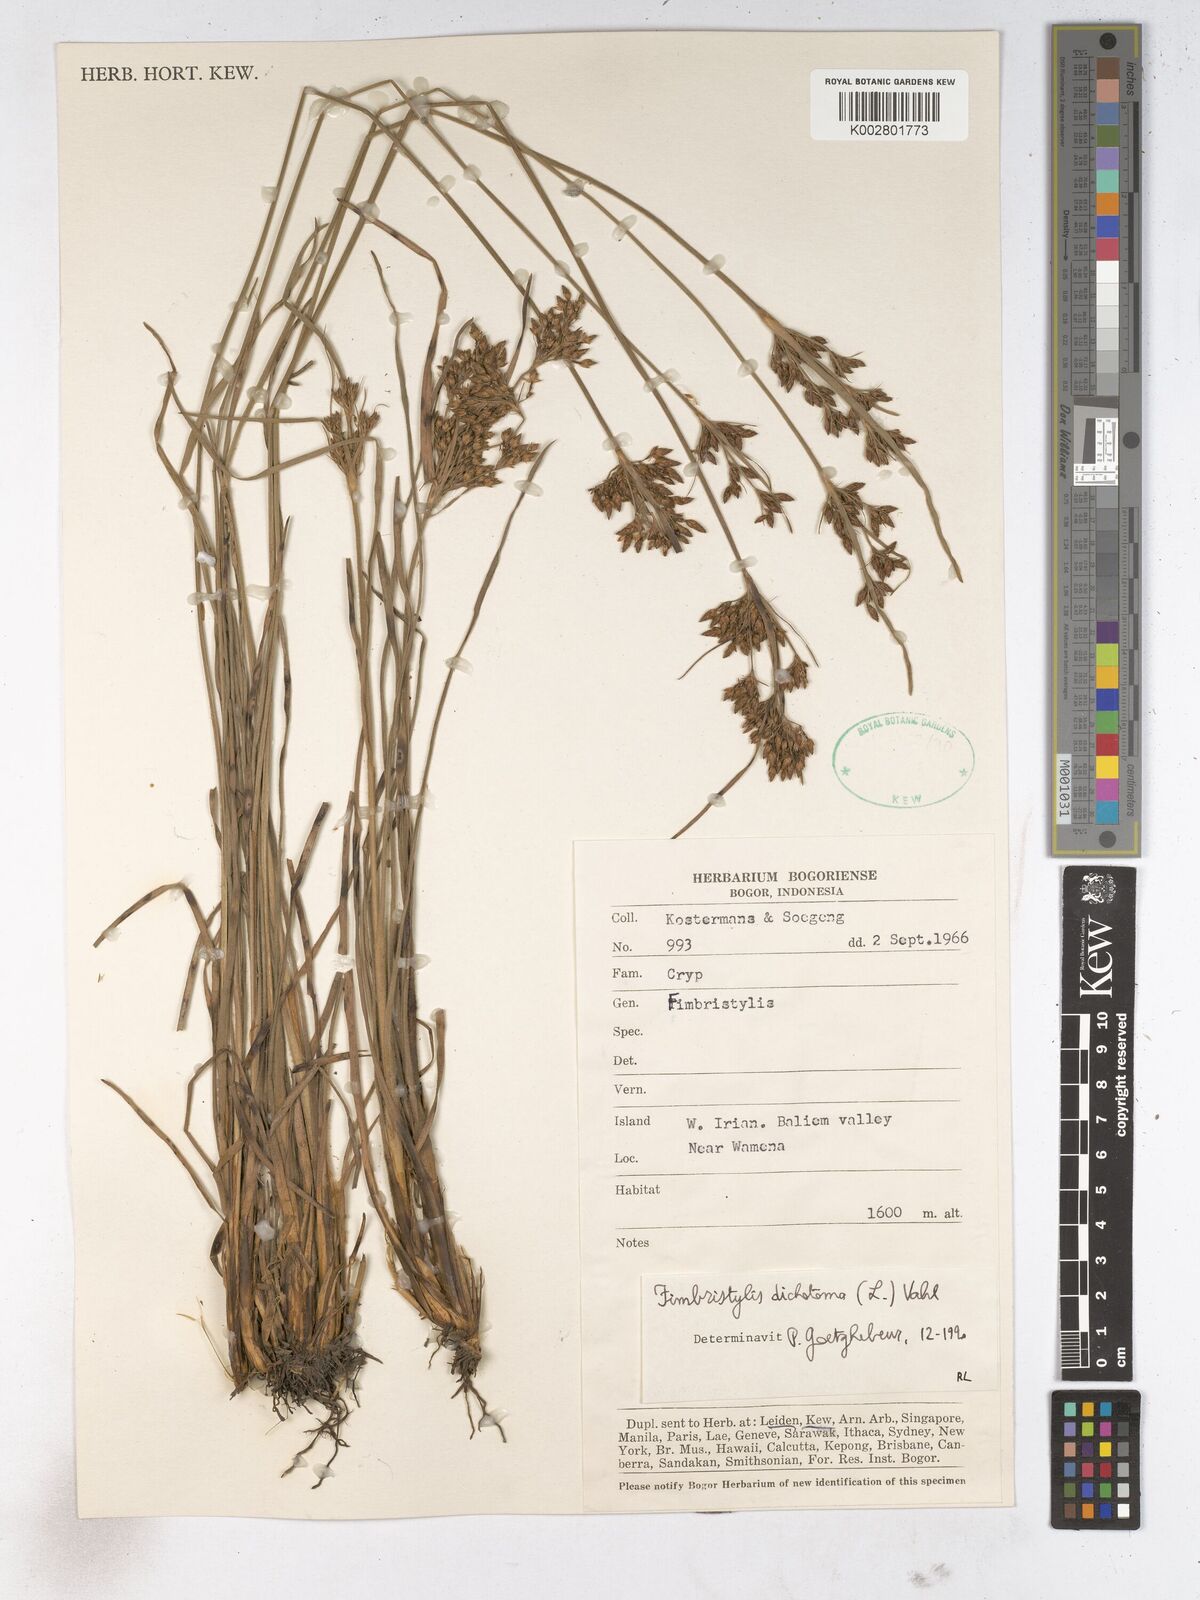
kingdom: Plantae
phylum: Tracheophyta
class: Liliopsida
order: Poales
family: Cyperaceae
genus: Fimbristylis
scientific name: Fimbristylis dichotoma
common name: Forked fimbry
